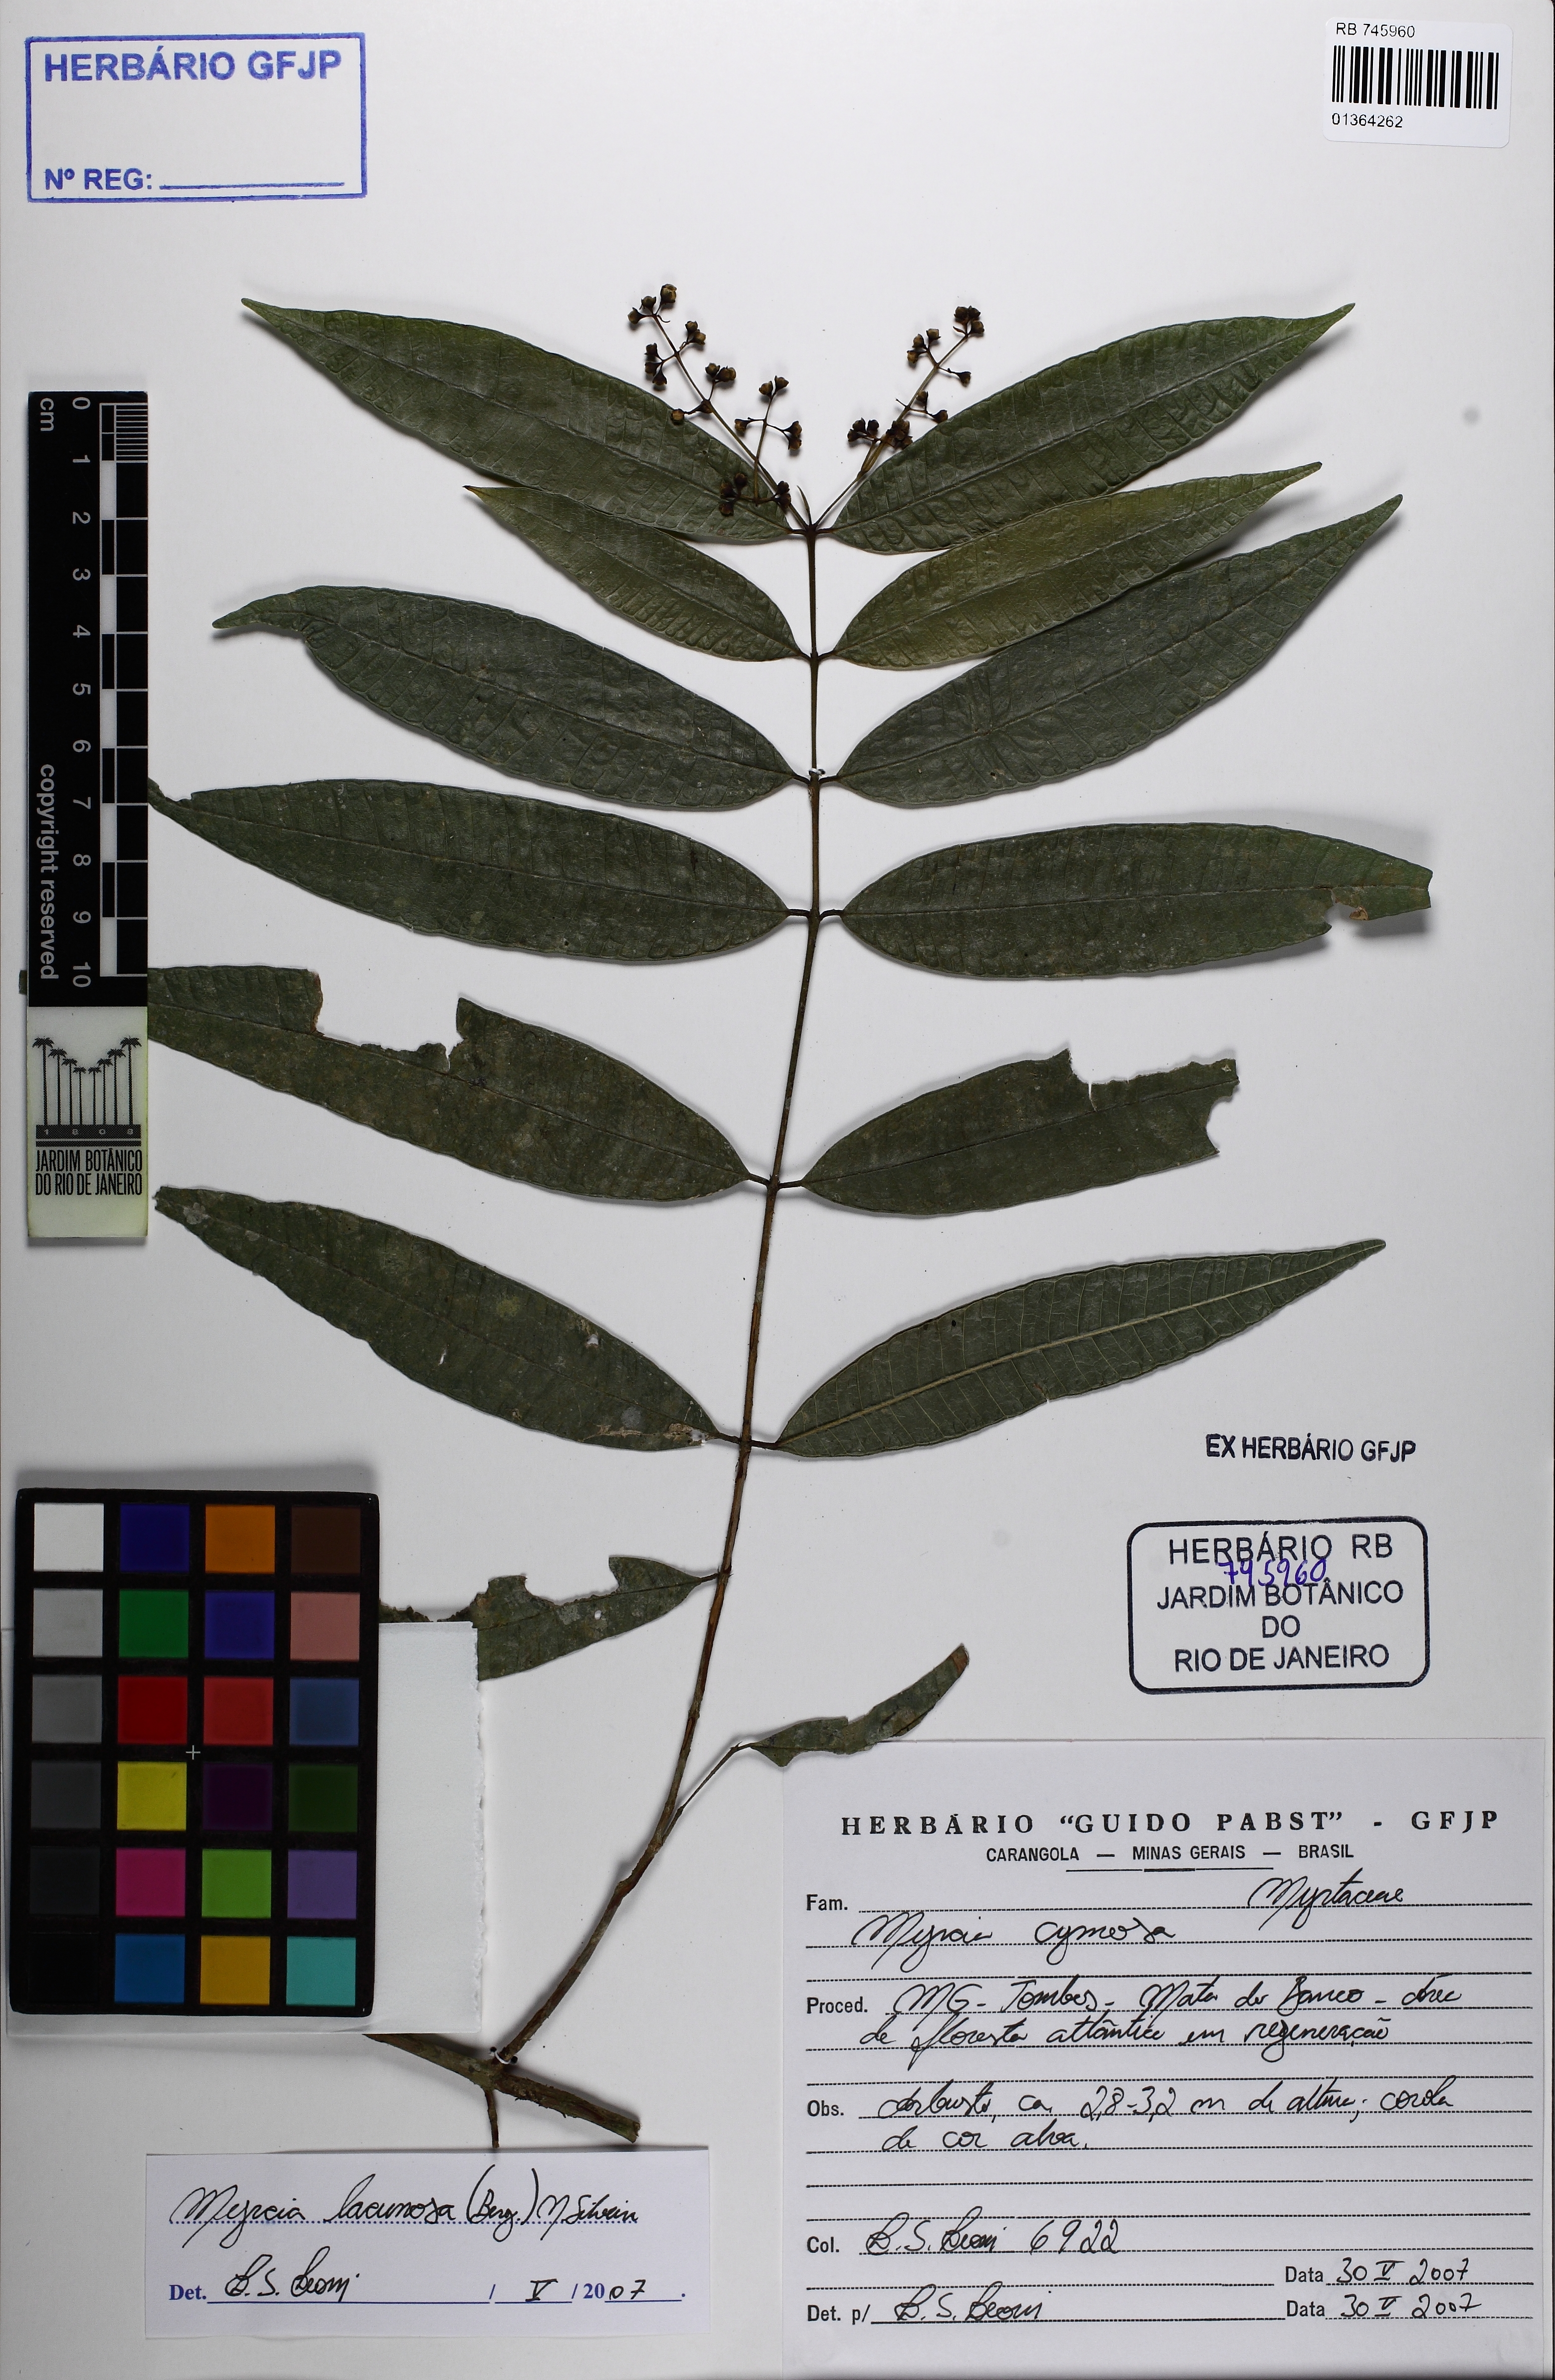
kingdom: Plantae
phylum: Tracheophyta
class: Magnoliopsida
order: Myrtales
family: Myrtaceae
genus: Myrcia
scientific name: Myrcia lacunosa
